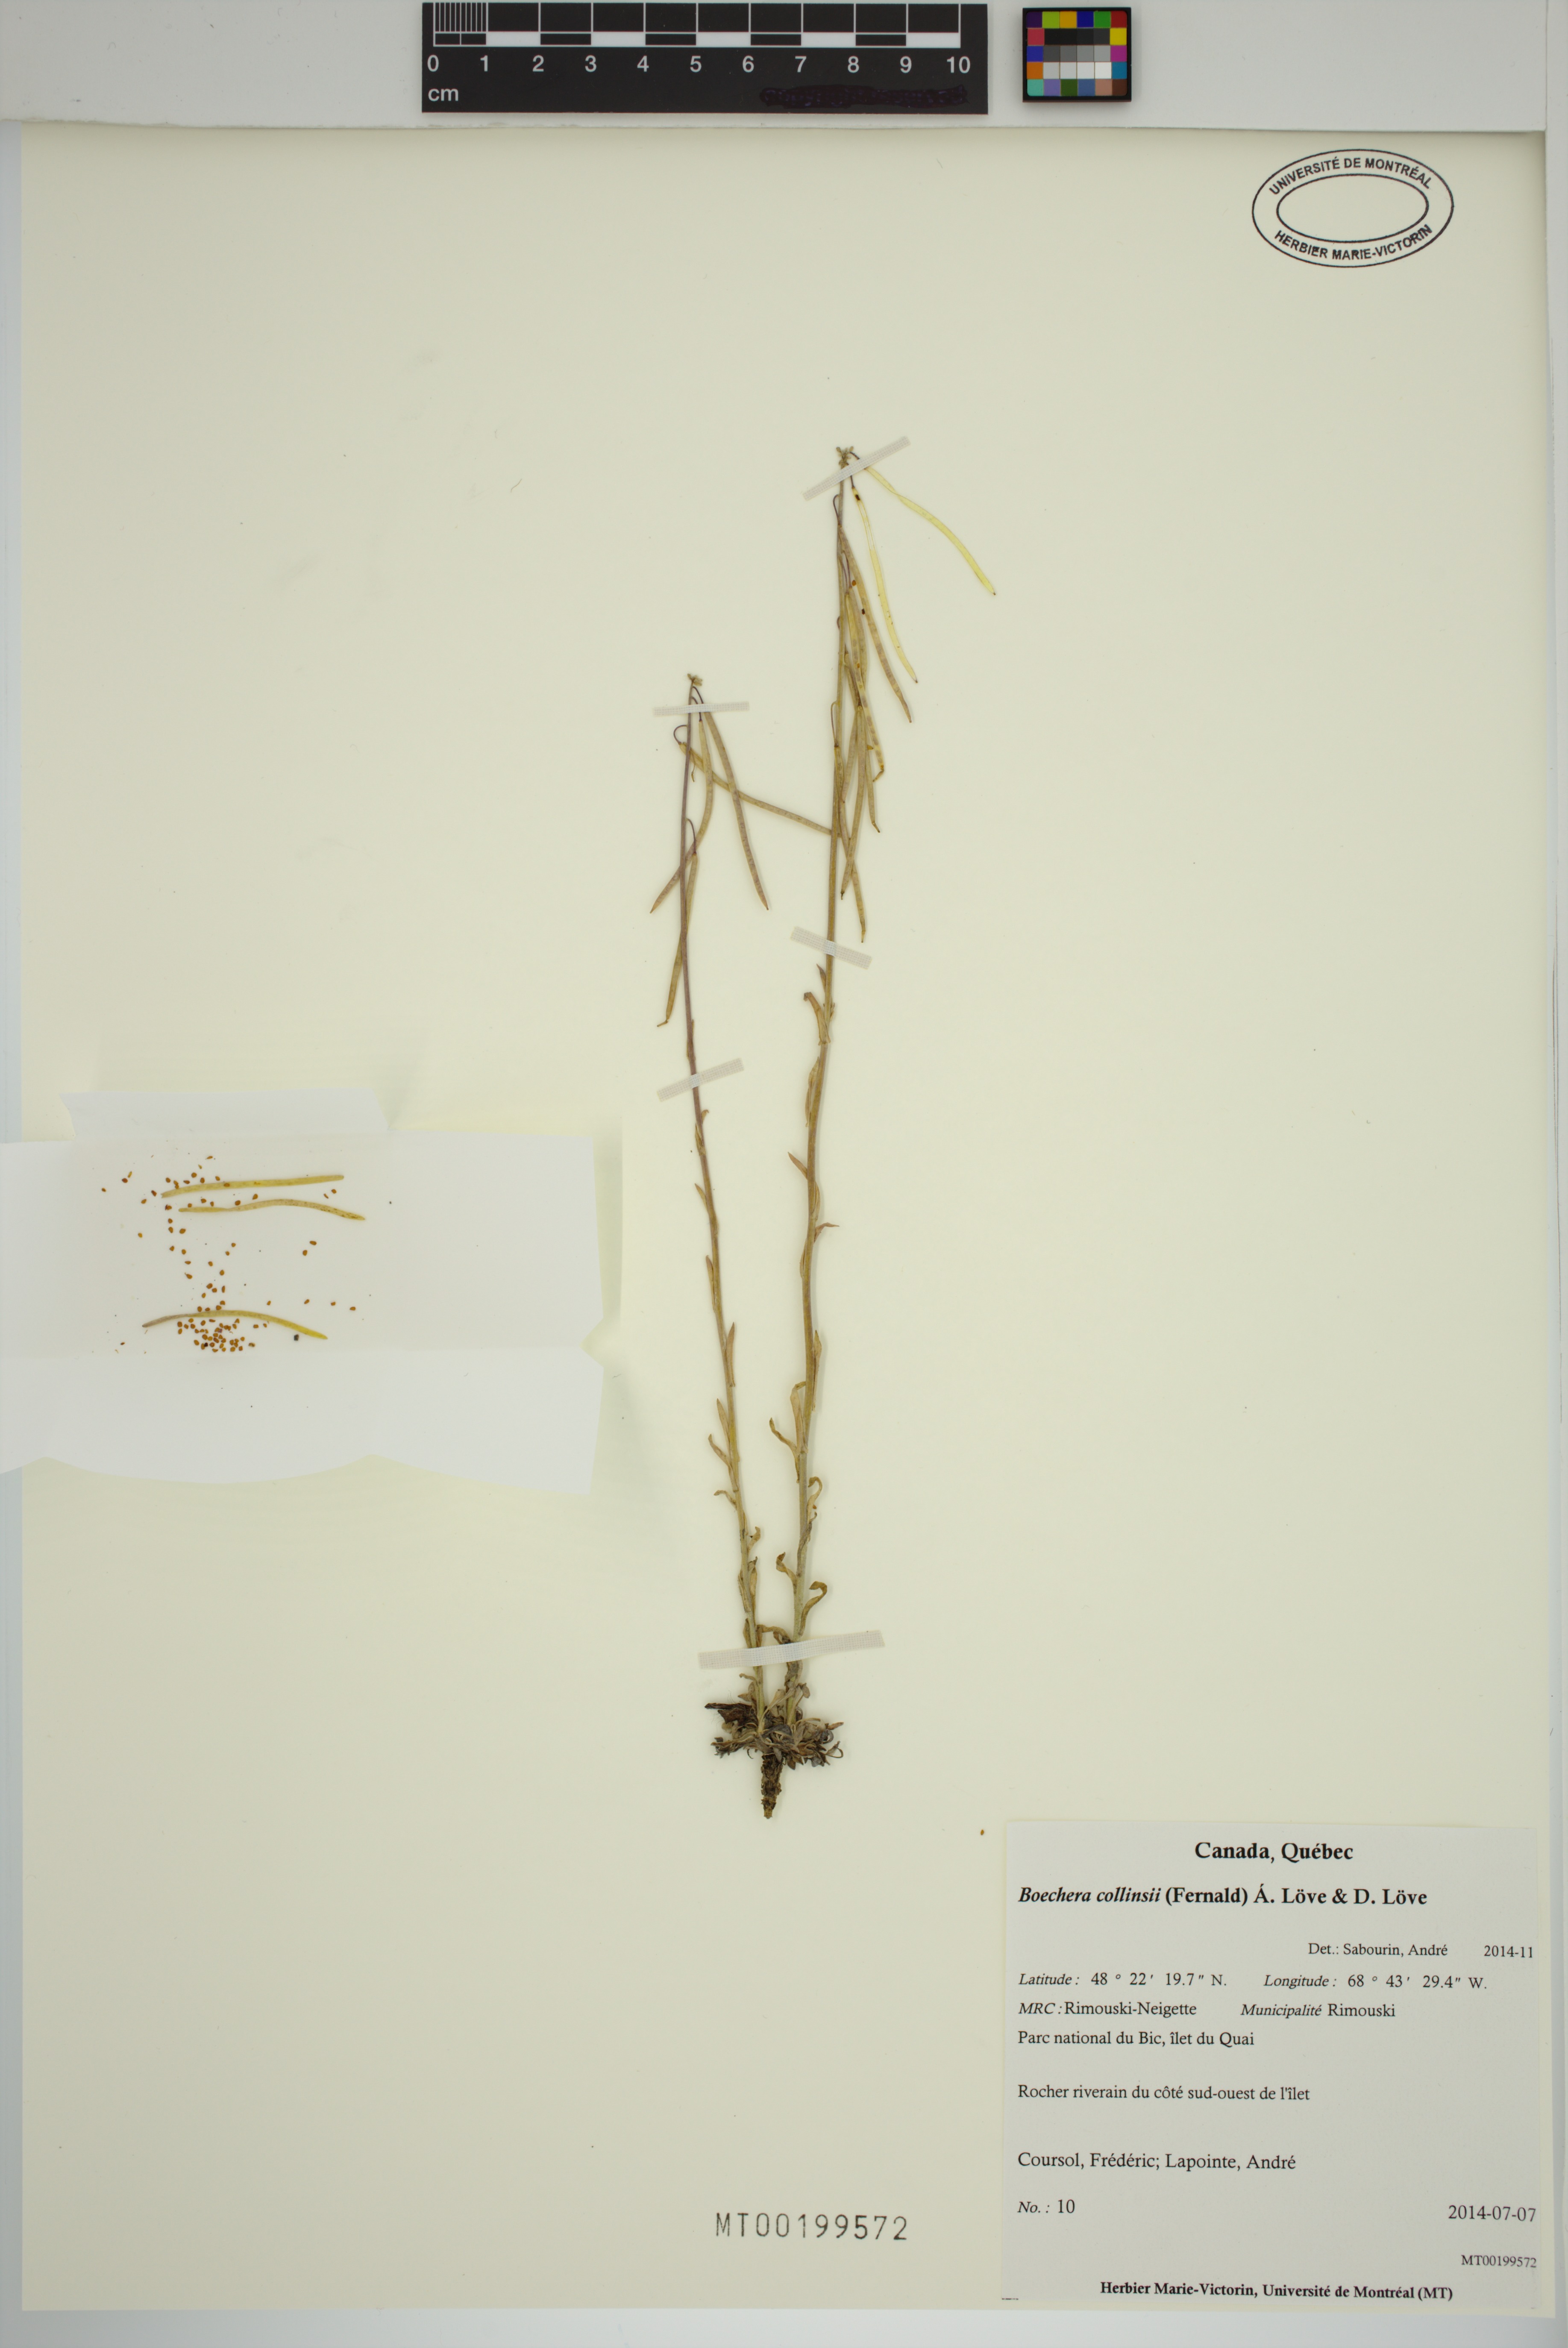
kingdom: Plantae
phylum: Tracheophyta
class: Magnoliopsida
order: Brassicales
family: Brassicaceae
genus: Boechera
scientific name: Boechera collinsii
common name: Collins' rockcress
